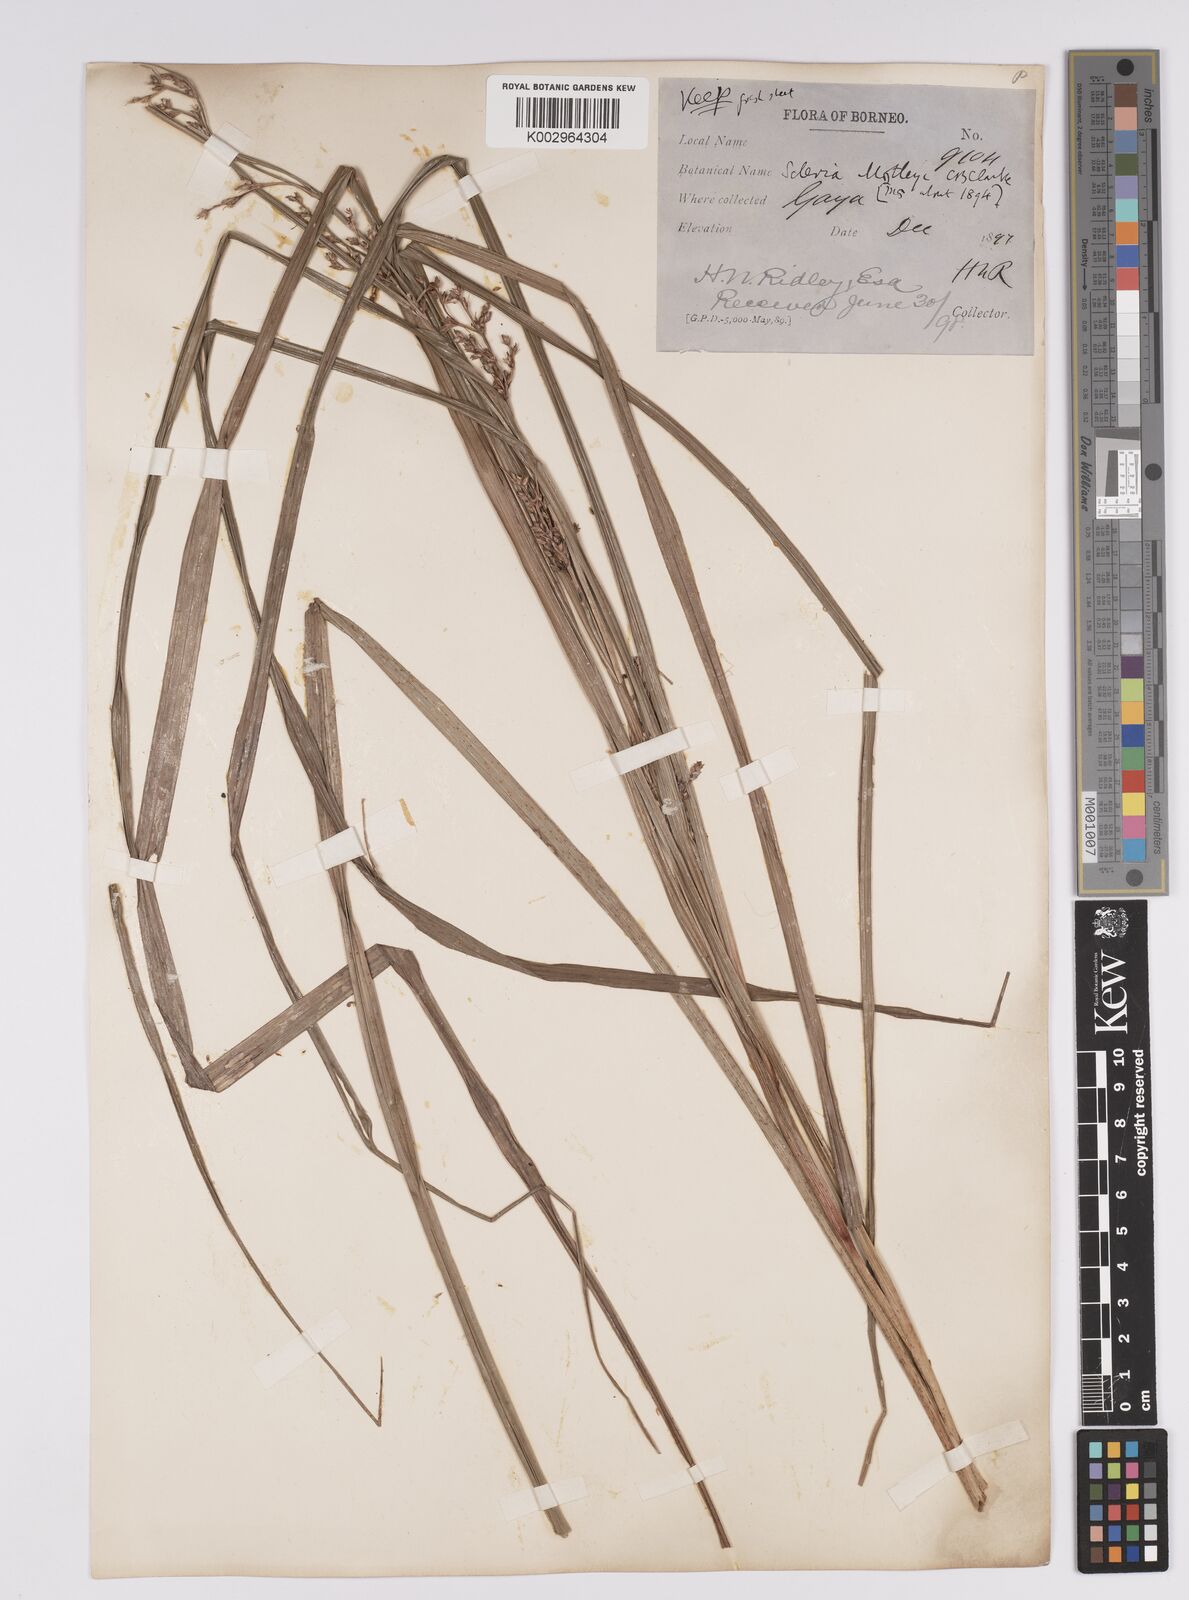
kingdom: Plantae
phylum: Tracheophyta
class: Liliopsida
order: Poales
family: Cyperaceae
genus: Scleria
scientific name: Scleria motleyi
